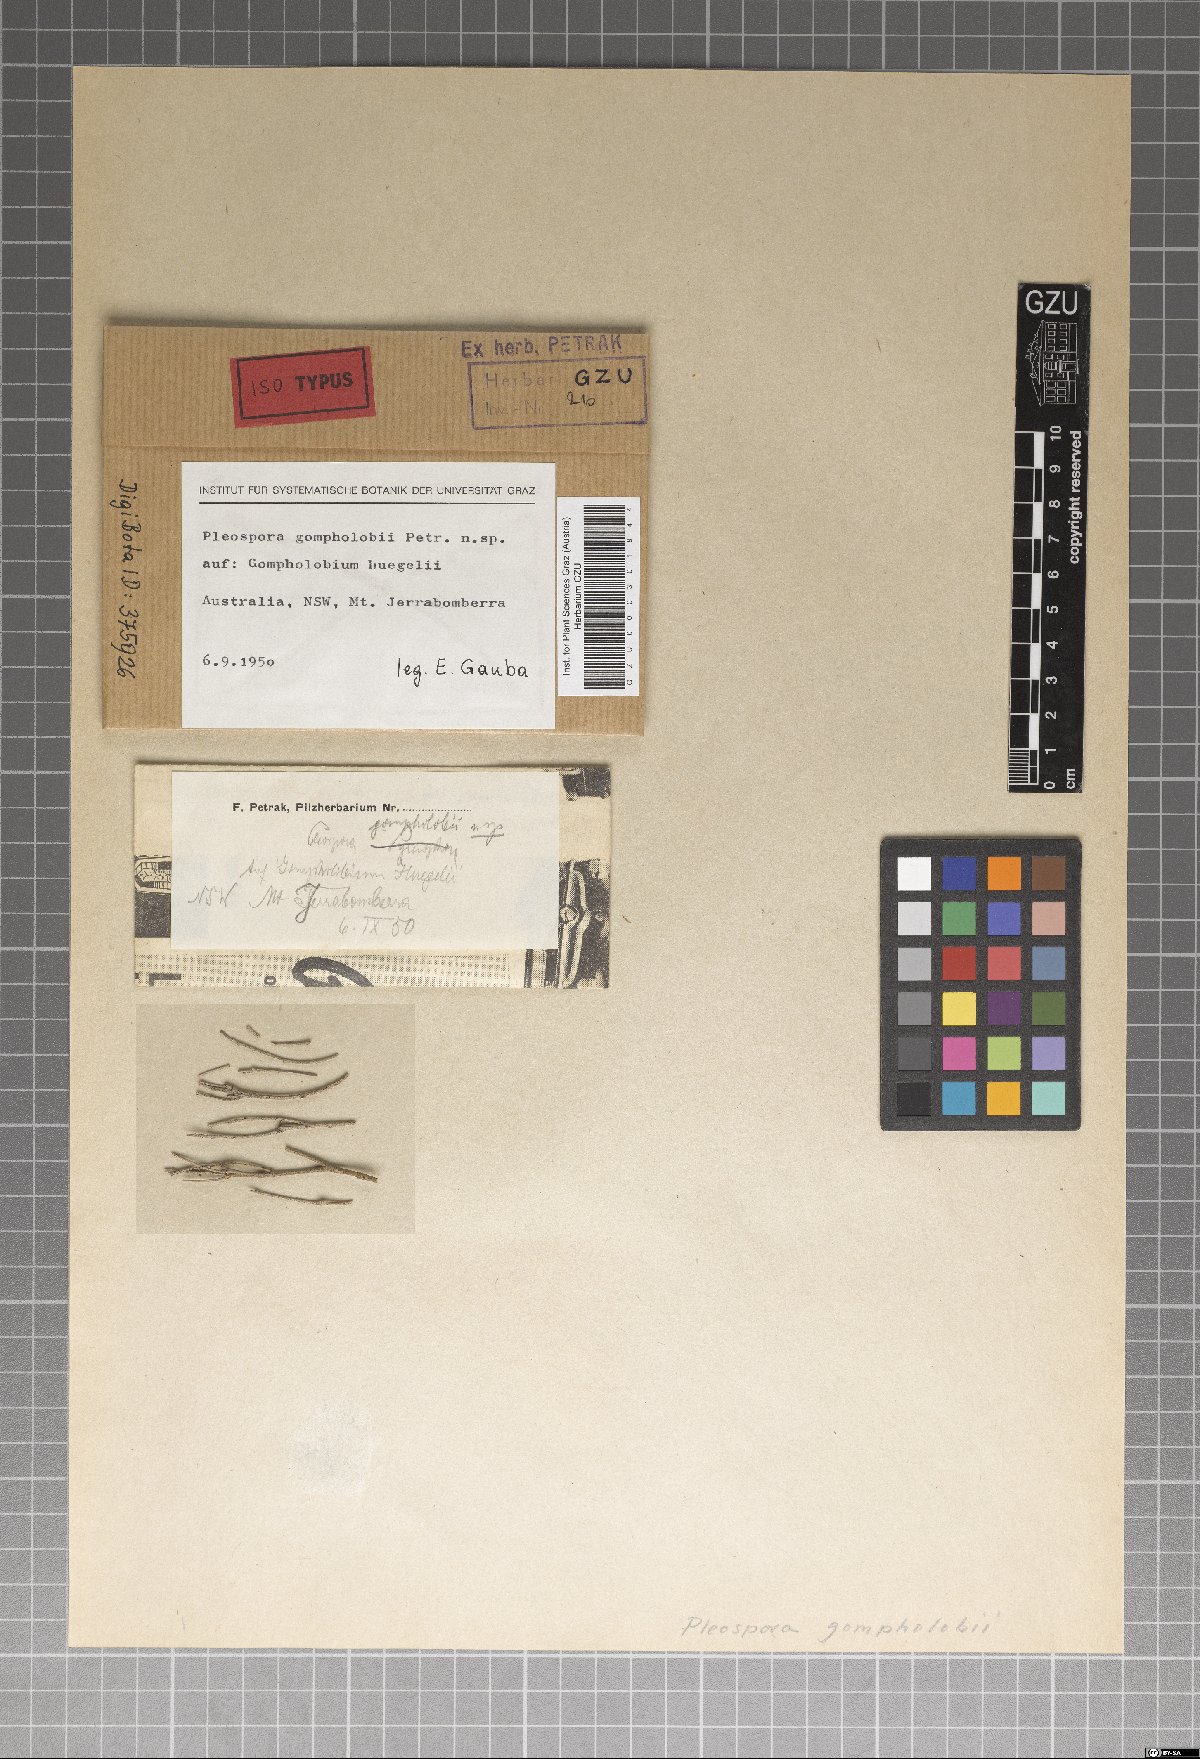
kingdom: Fungi
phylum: Ascomycota
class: Dothideomycetes
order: Pleosporales
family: Pleosporaceae
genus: Pleospora
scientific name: Pleospora gompholobii
